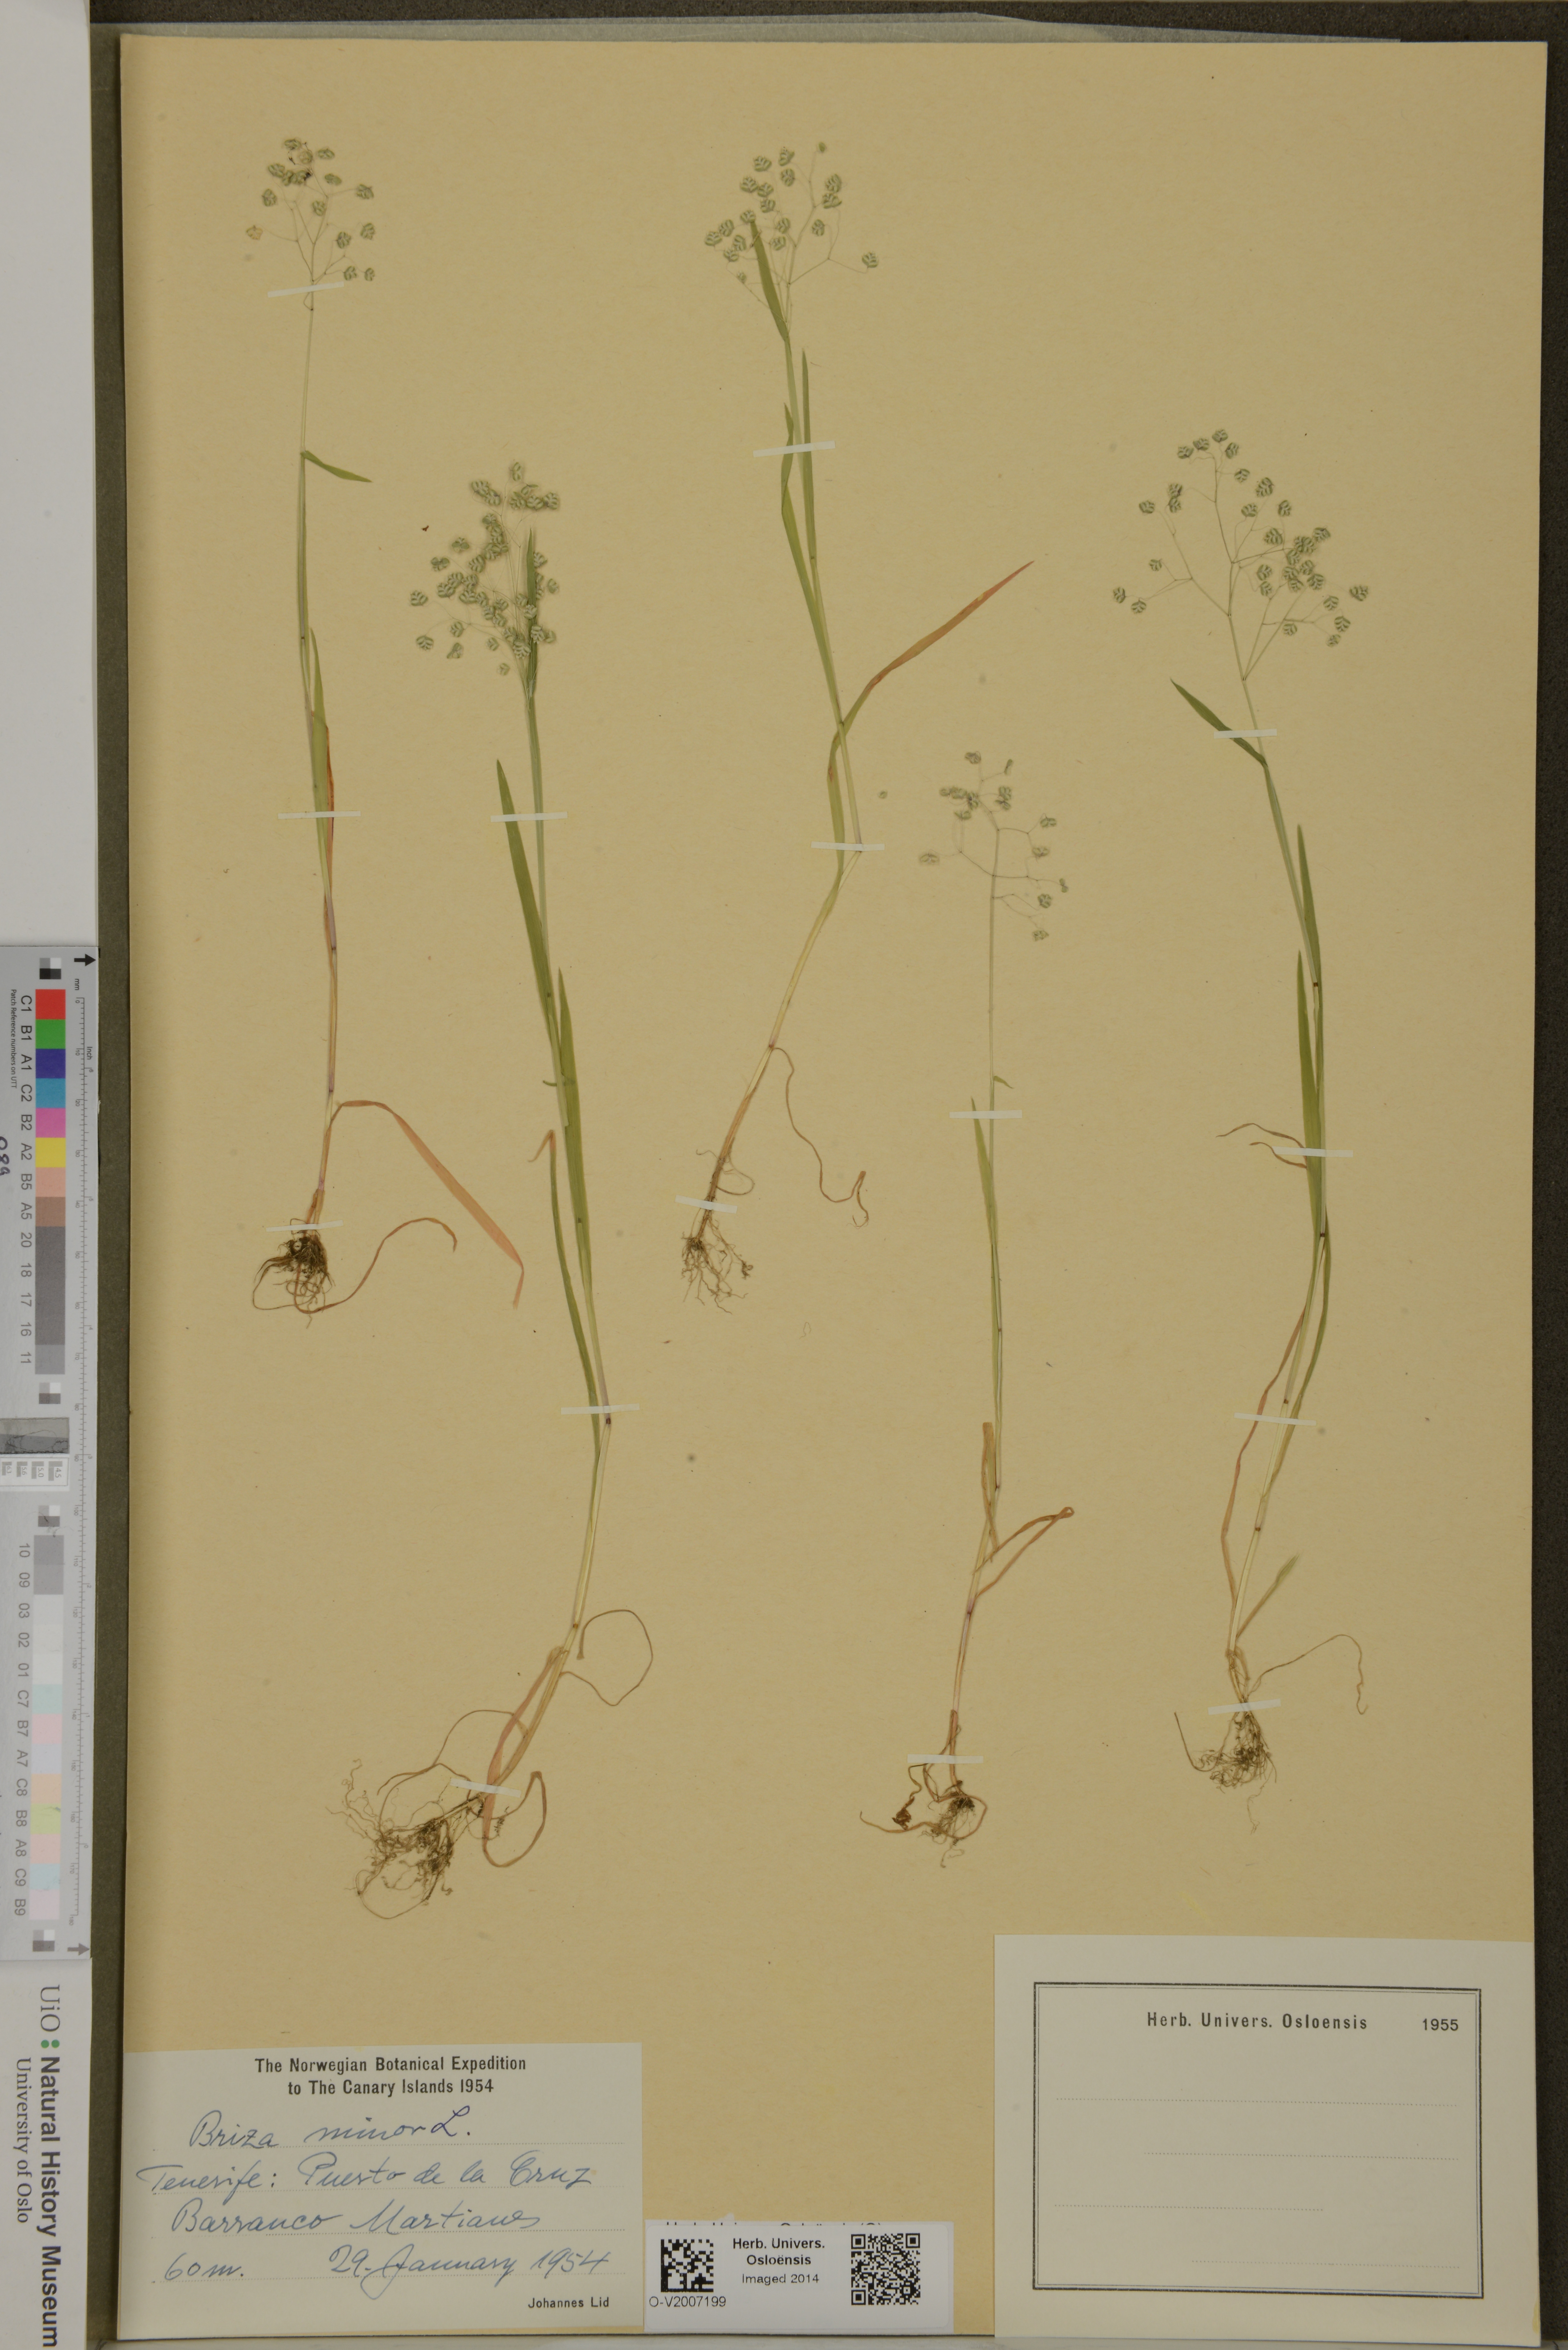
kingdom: Plantae
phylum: Tracheophyta
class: Liliopsida
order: Poales
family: Poaceae
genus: Briza
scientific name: Briza minor
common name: Lesser quaking-grass
